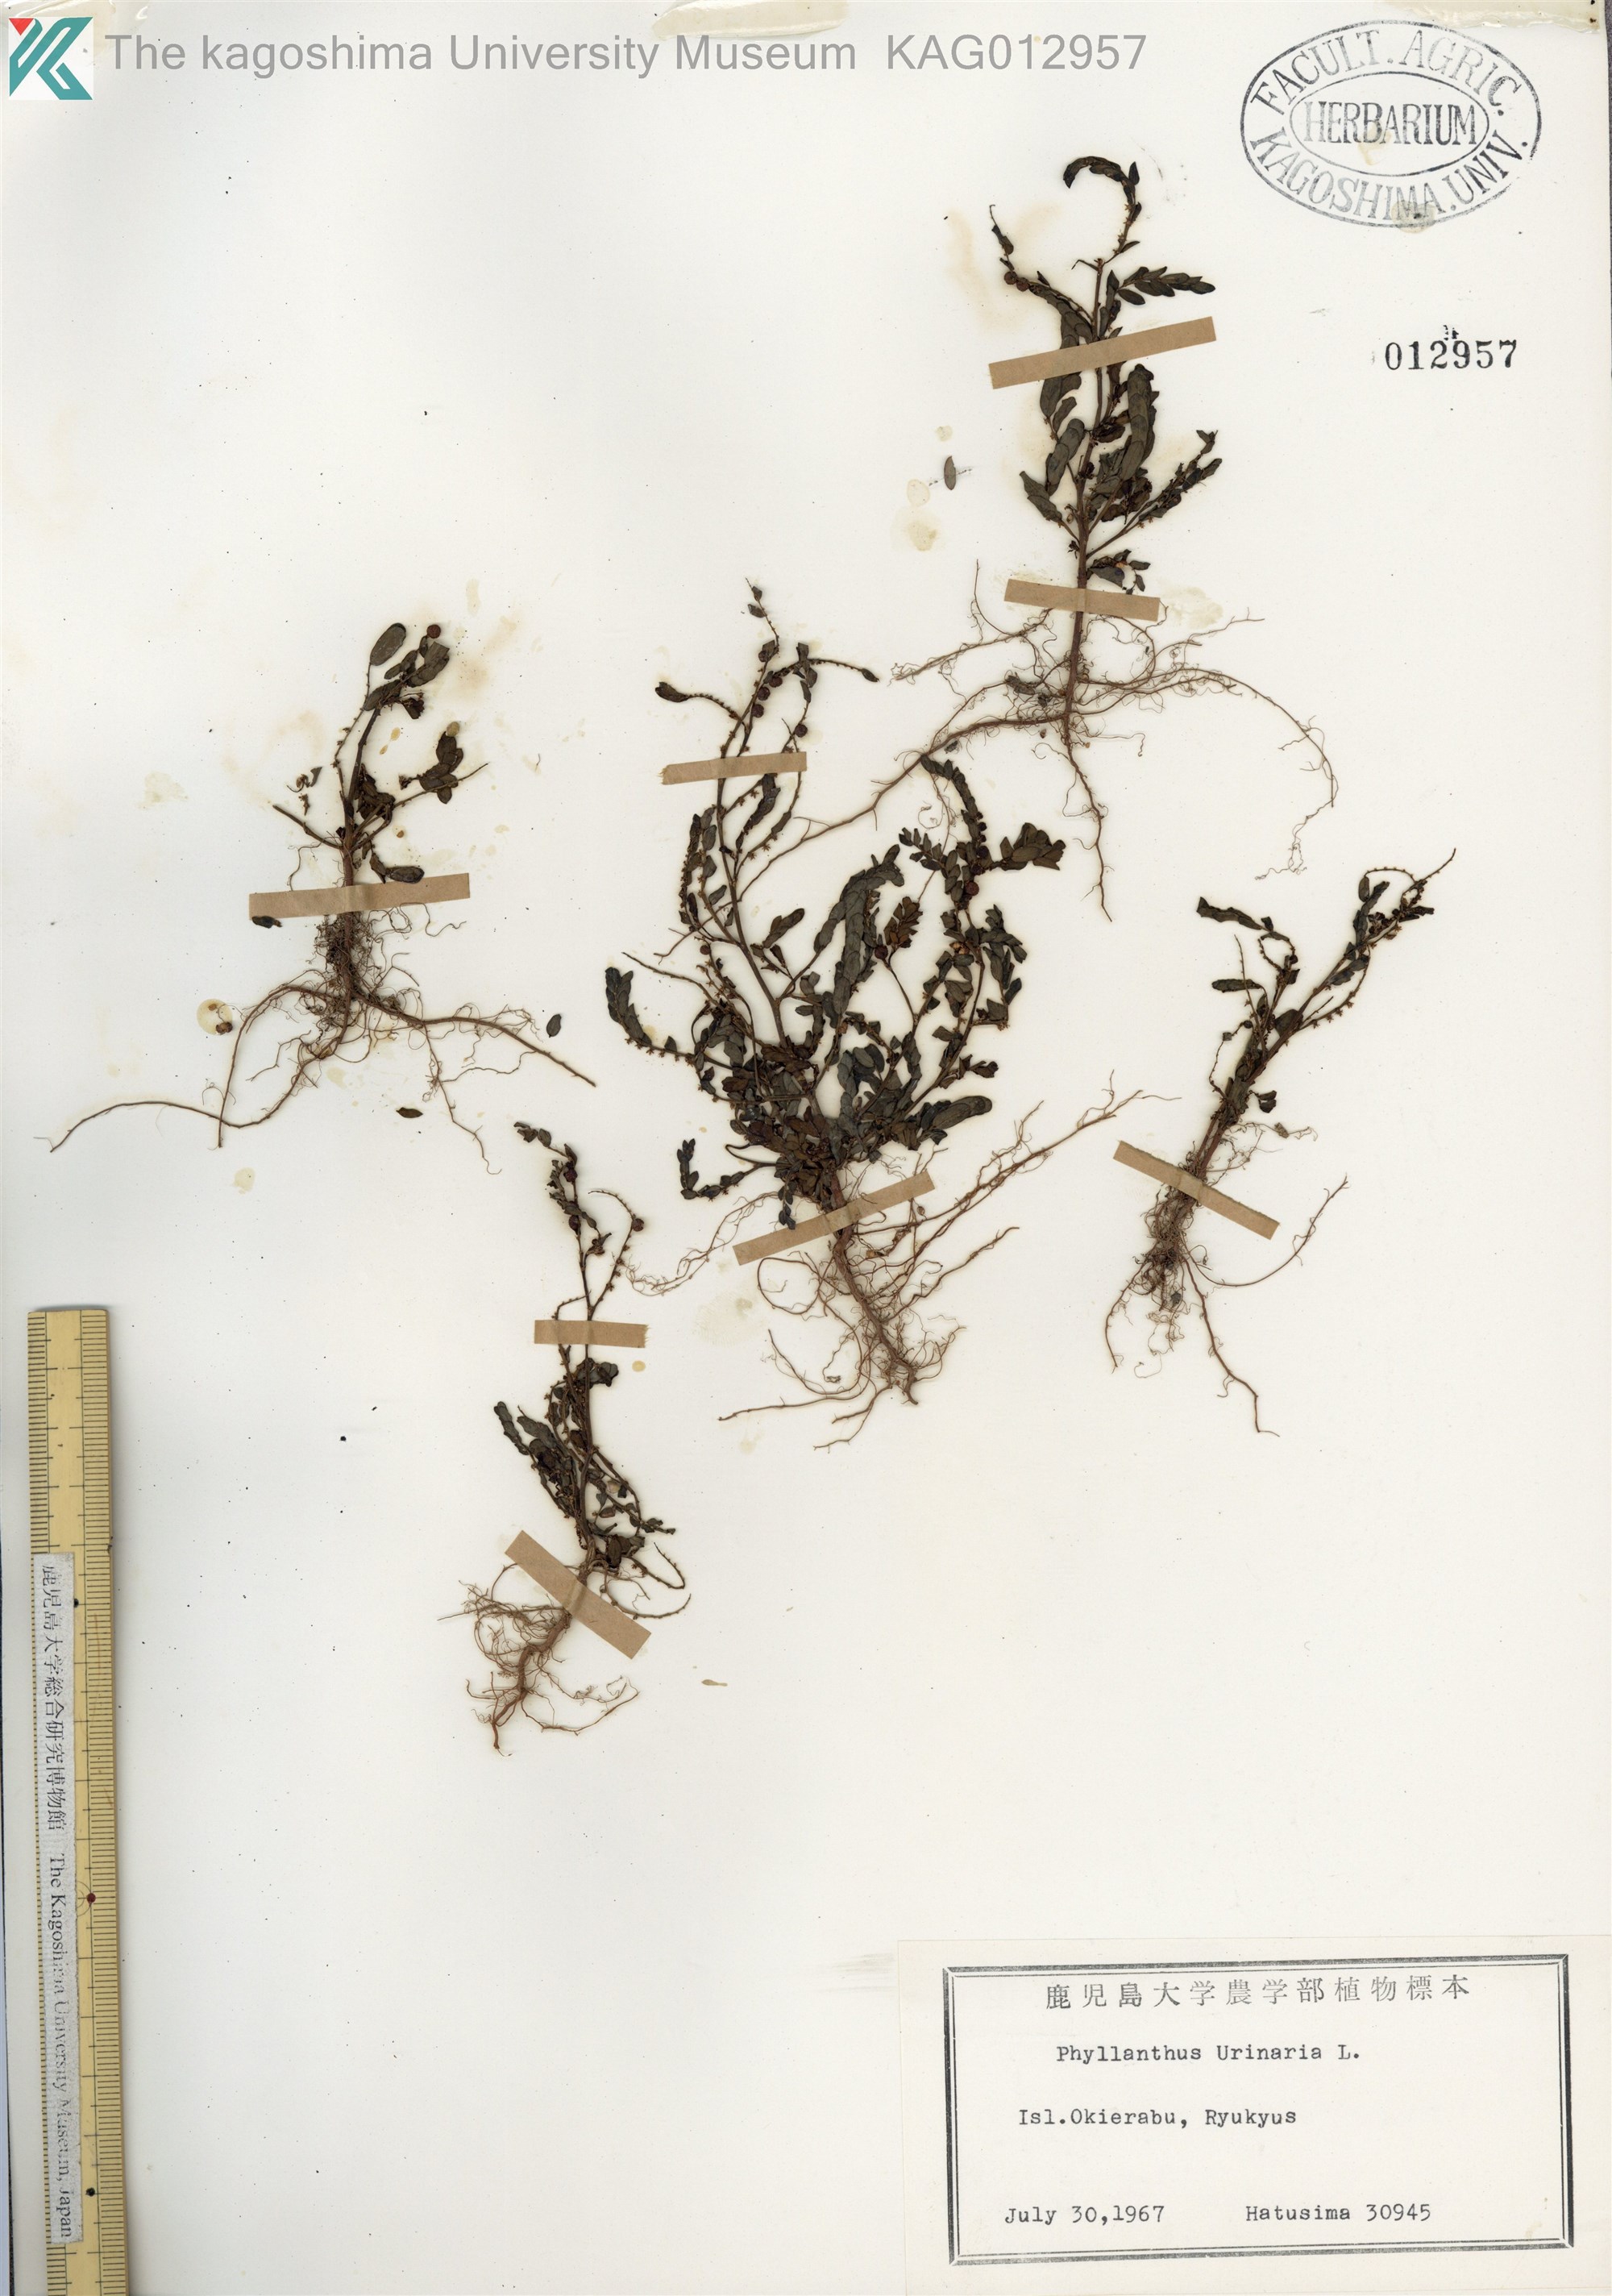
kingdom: Plantae
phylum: Tracheophyta
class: Magnoliopsida
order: Malpighiales
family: Phyllanthaceae
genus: Phyllanthus
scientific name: Phyllanthus urinaria
